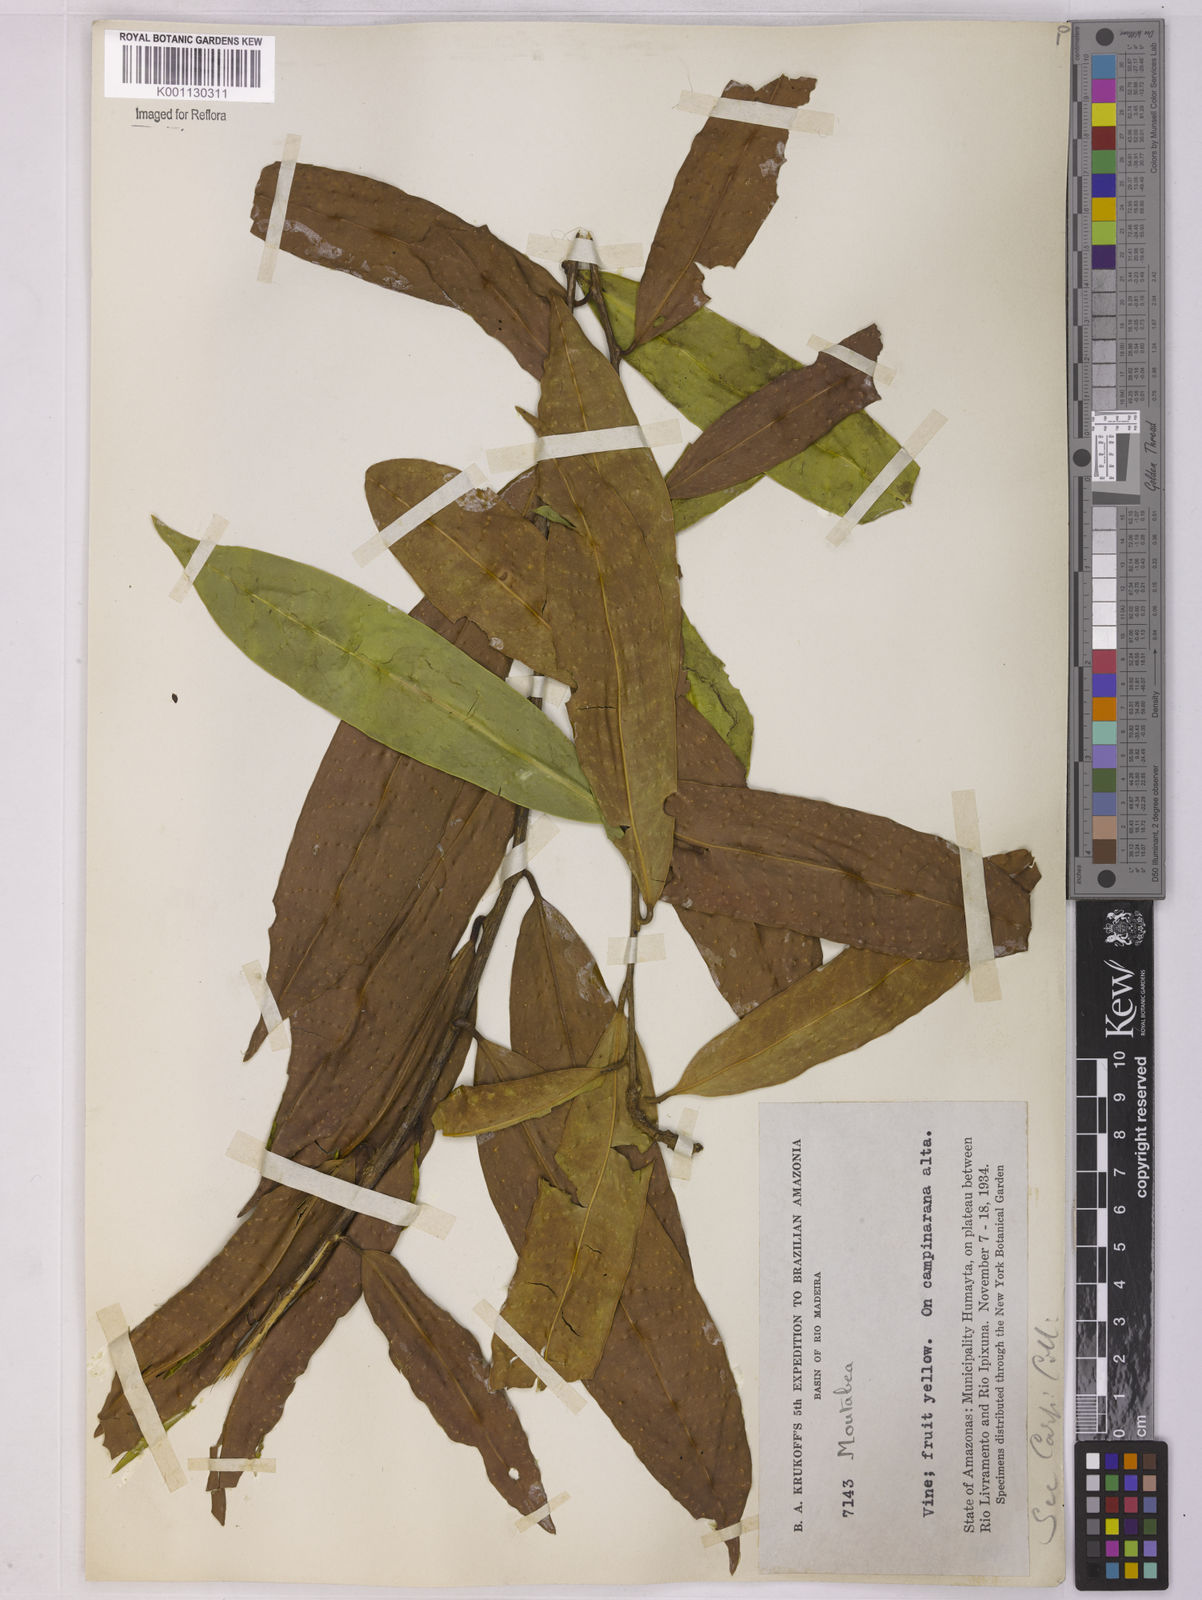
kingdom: Plantae
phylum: Tracheophyta
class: Magnoliopsida
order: Fabales
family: Polygalaceae
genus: Moutabea
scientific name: Moutabea
